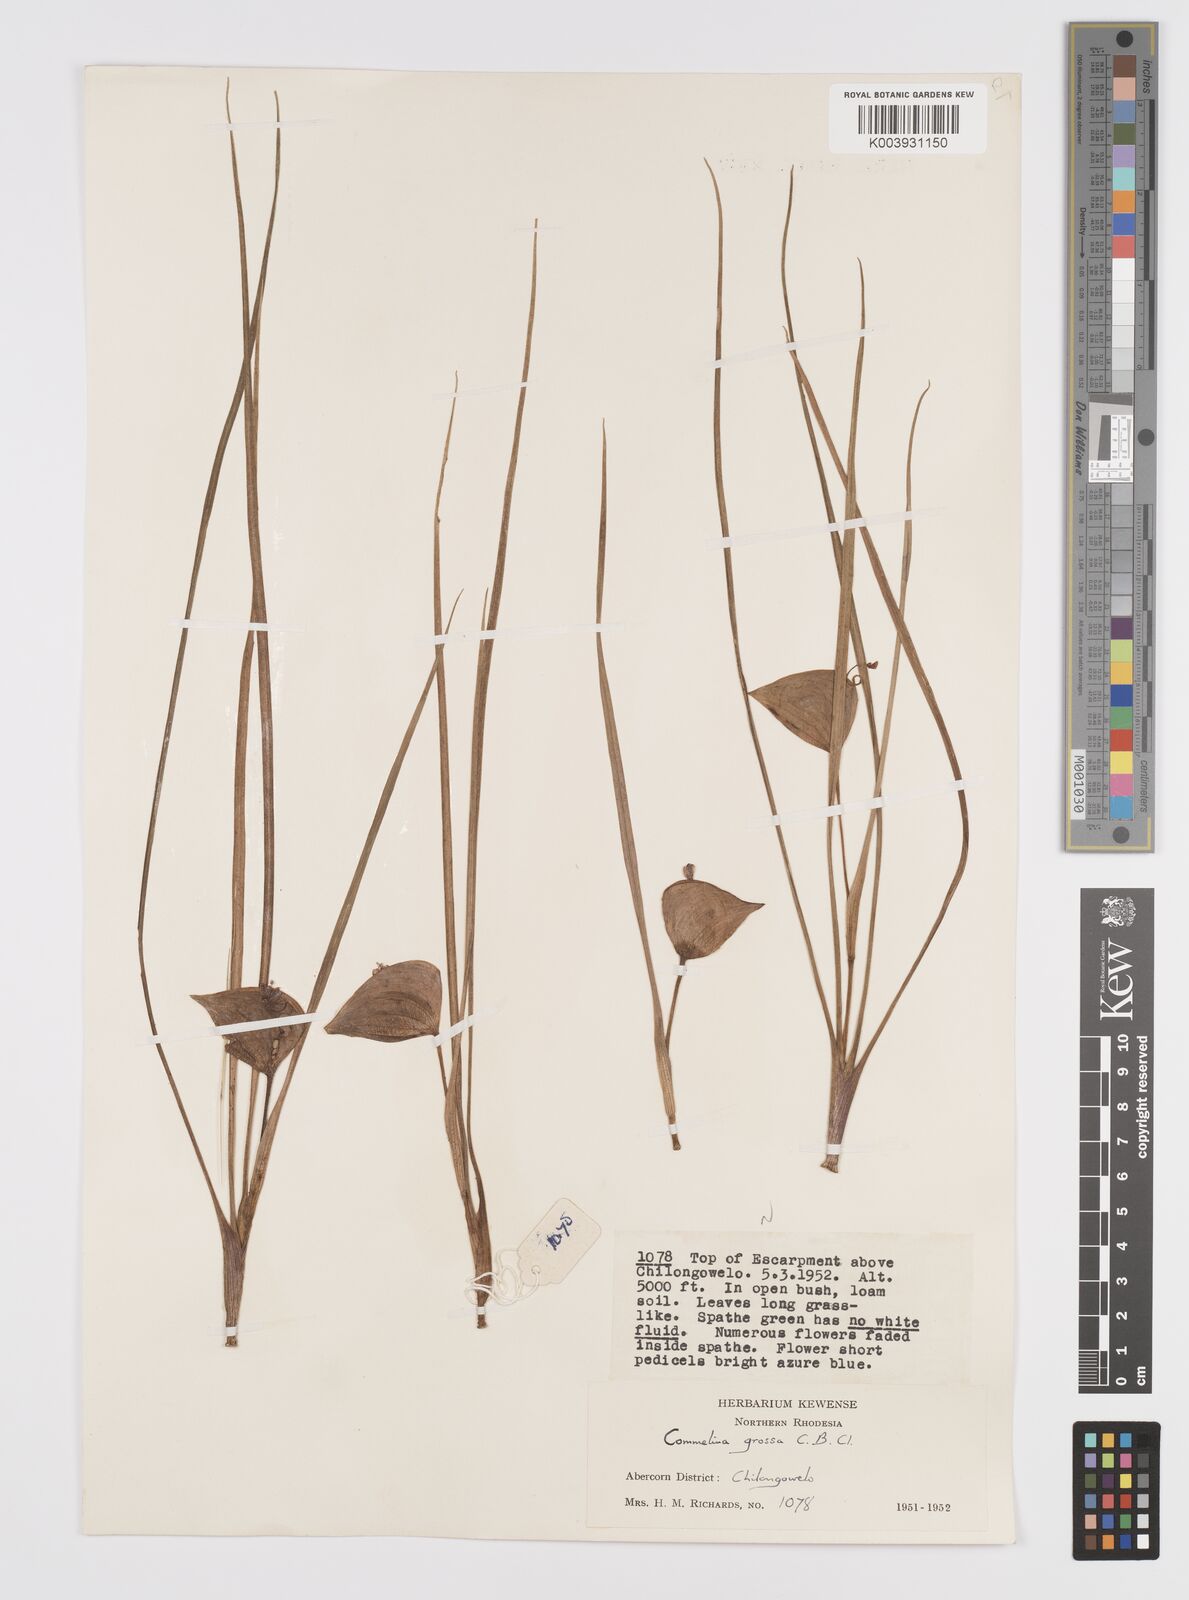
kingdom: Plantae
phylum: Tracheophyta
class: Liliopsida
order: Commelinales
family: Commelinaceae
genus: Commelina
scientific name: Commelina grossa
